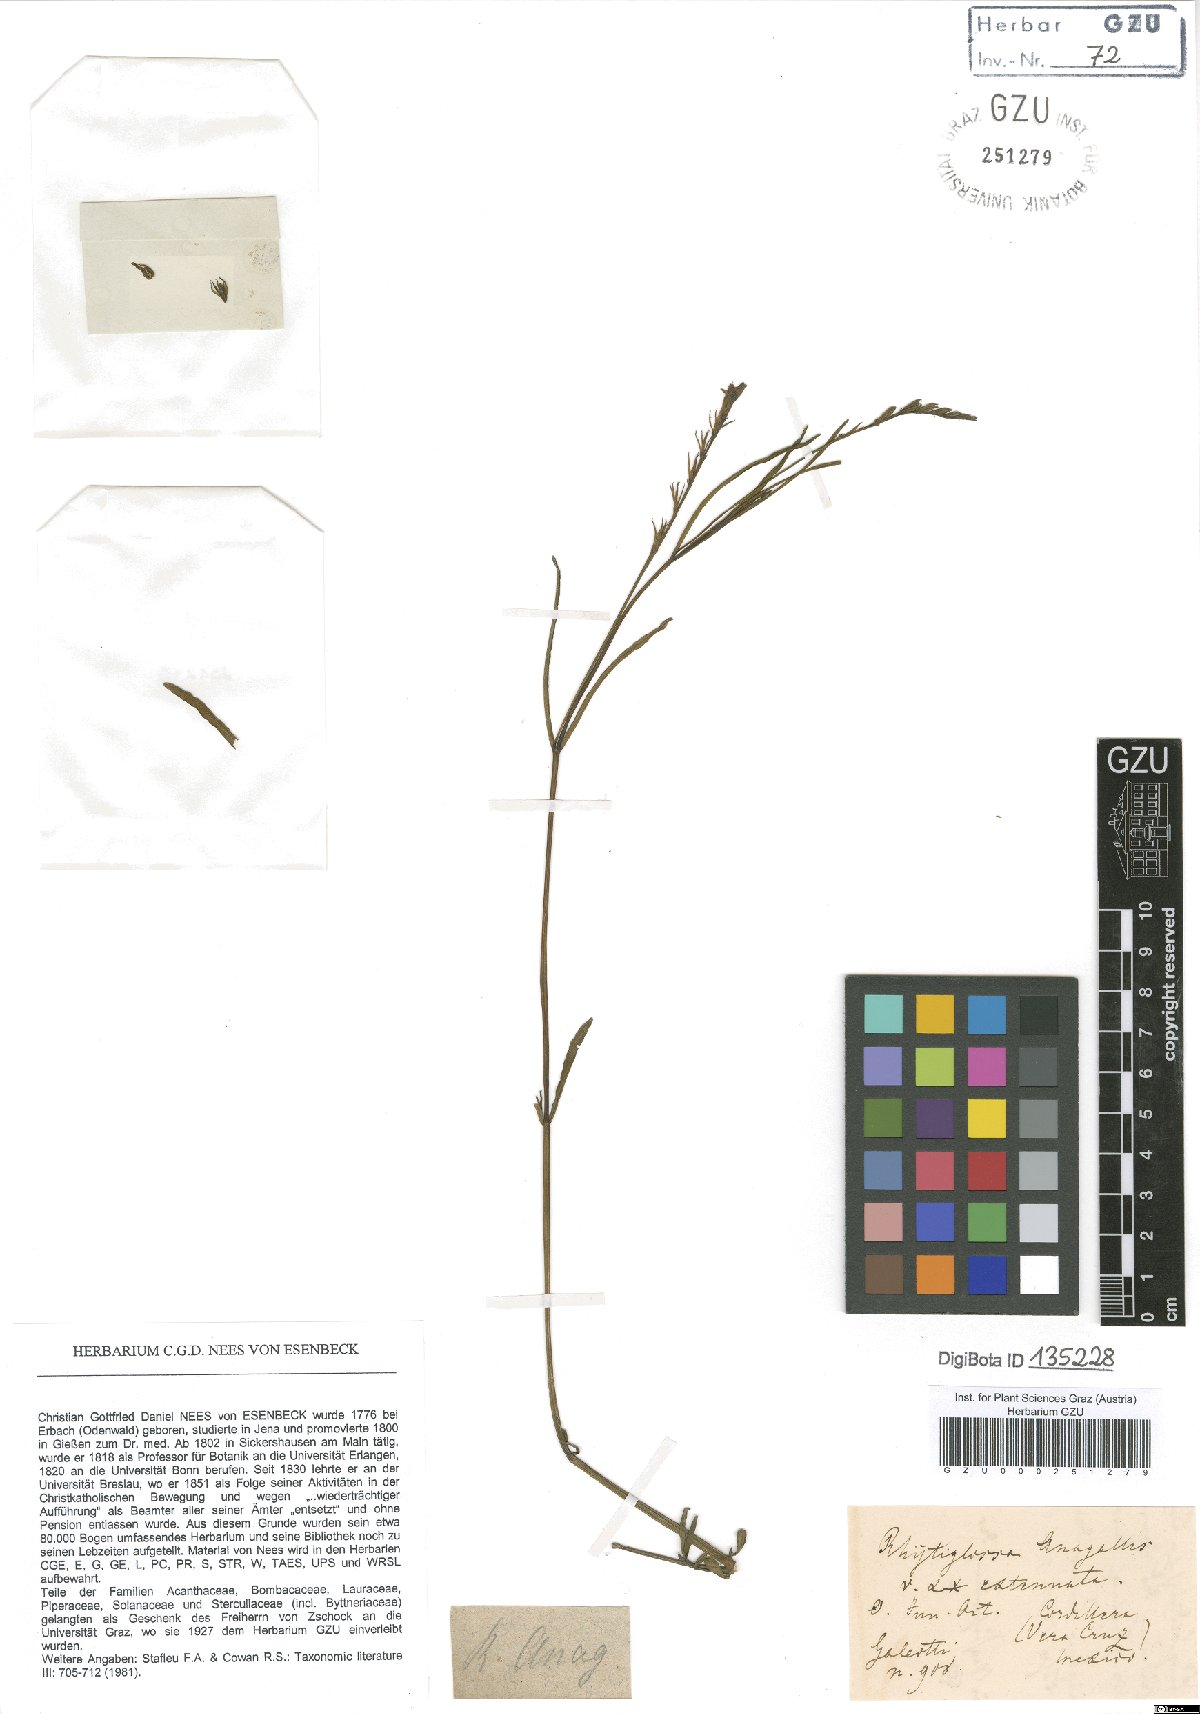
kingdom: Plantae
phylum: Tracheophyta
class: Magnoliopsida
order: Lamiales
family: Acanthaceae
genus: Dianthera
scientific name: Dianthera laevilinguis
